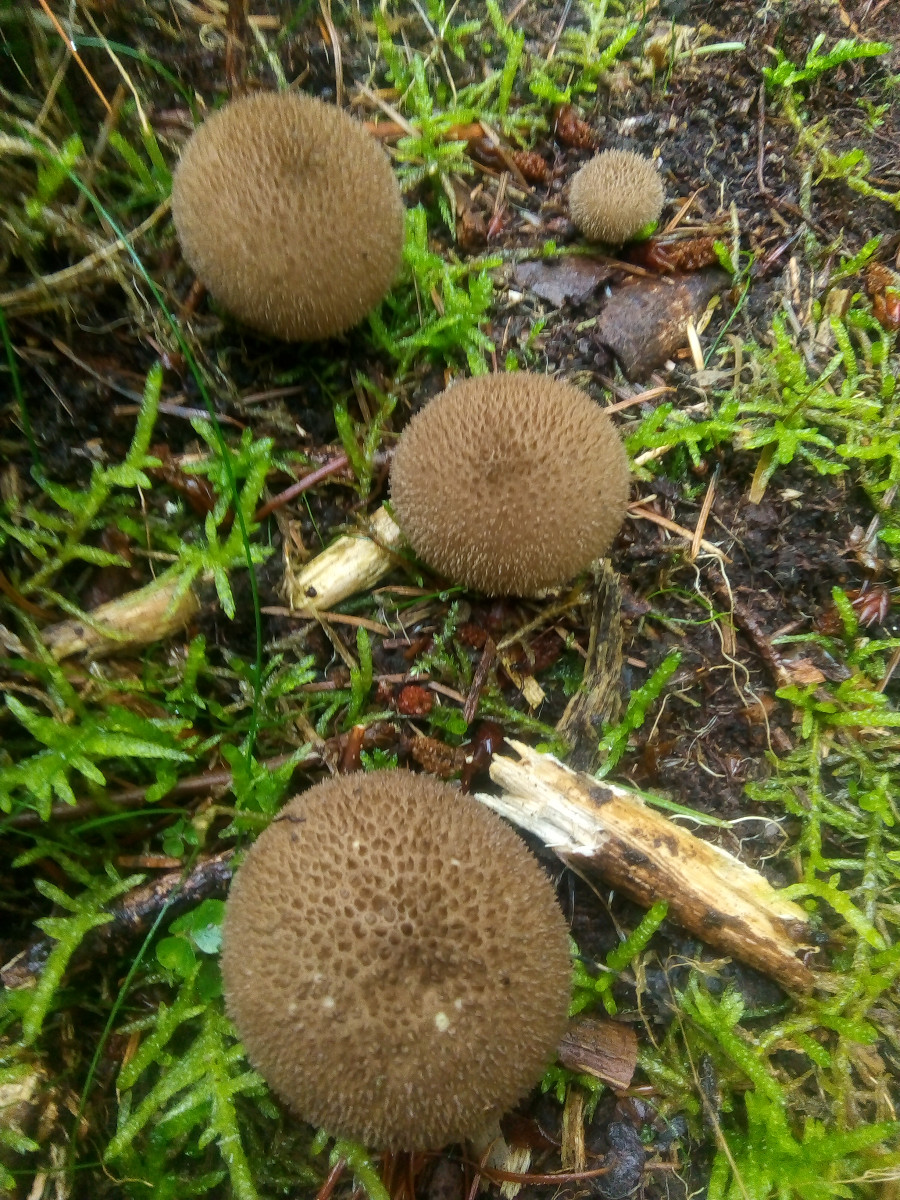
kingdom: Fungi
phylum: Basidiomycota
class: Agaricomycetes
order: Agaricales
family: Lycoperdaceae
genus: Lycoperdon
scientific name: Lycoperdon nigrescens
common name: sortagtig støvbold
